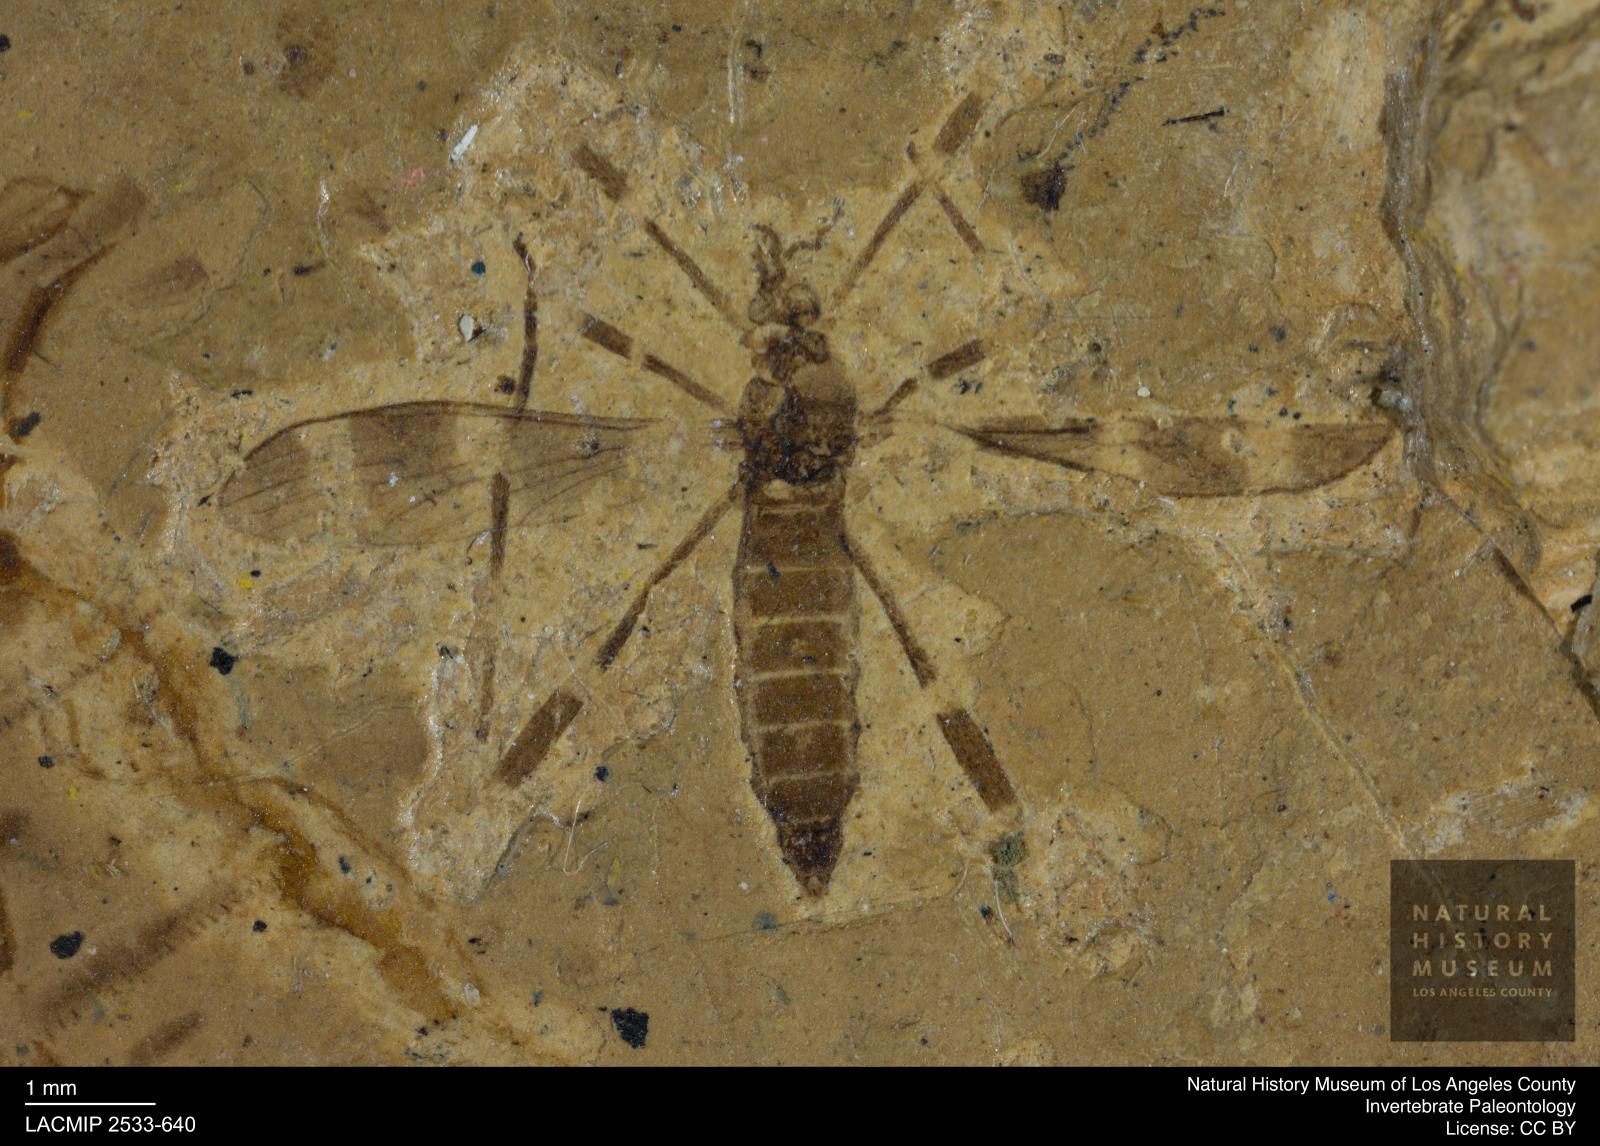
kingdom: Animalia
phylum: Arthropoda
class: Insecta
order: Diptera
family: Limoniidae
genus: Erioptera
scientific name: Erioptera pagasti
